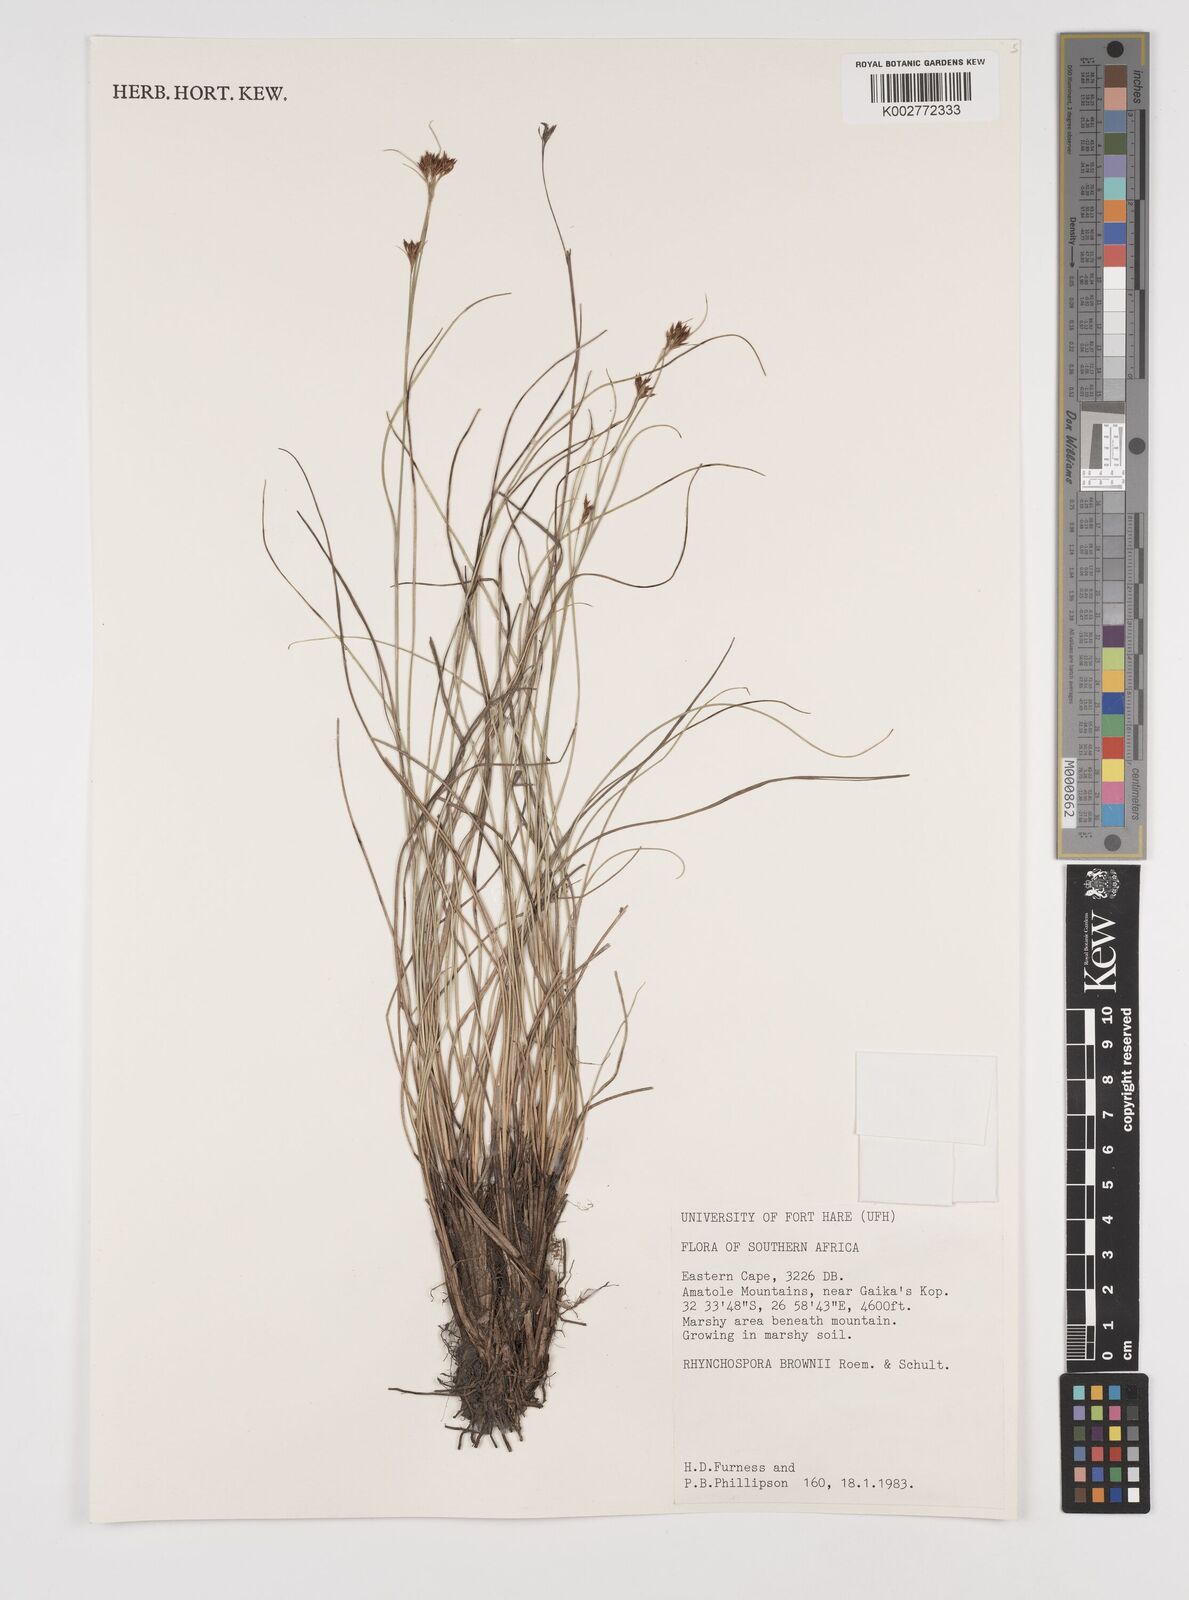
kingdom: Plantae
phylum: Tracheophyta
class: Liliopsida
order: Poales
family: Cyperaceae
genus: Rhynchospora
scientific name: Rhynchospora rugosa
